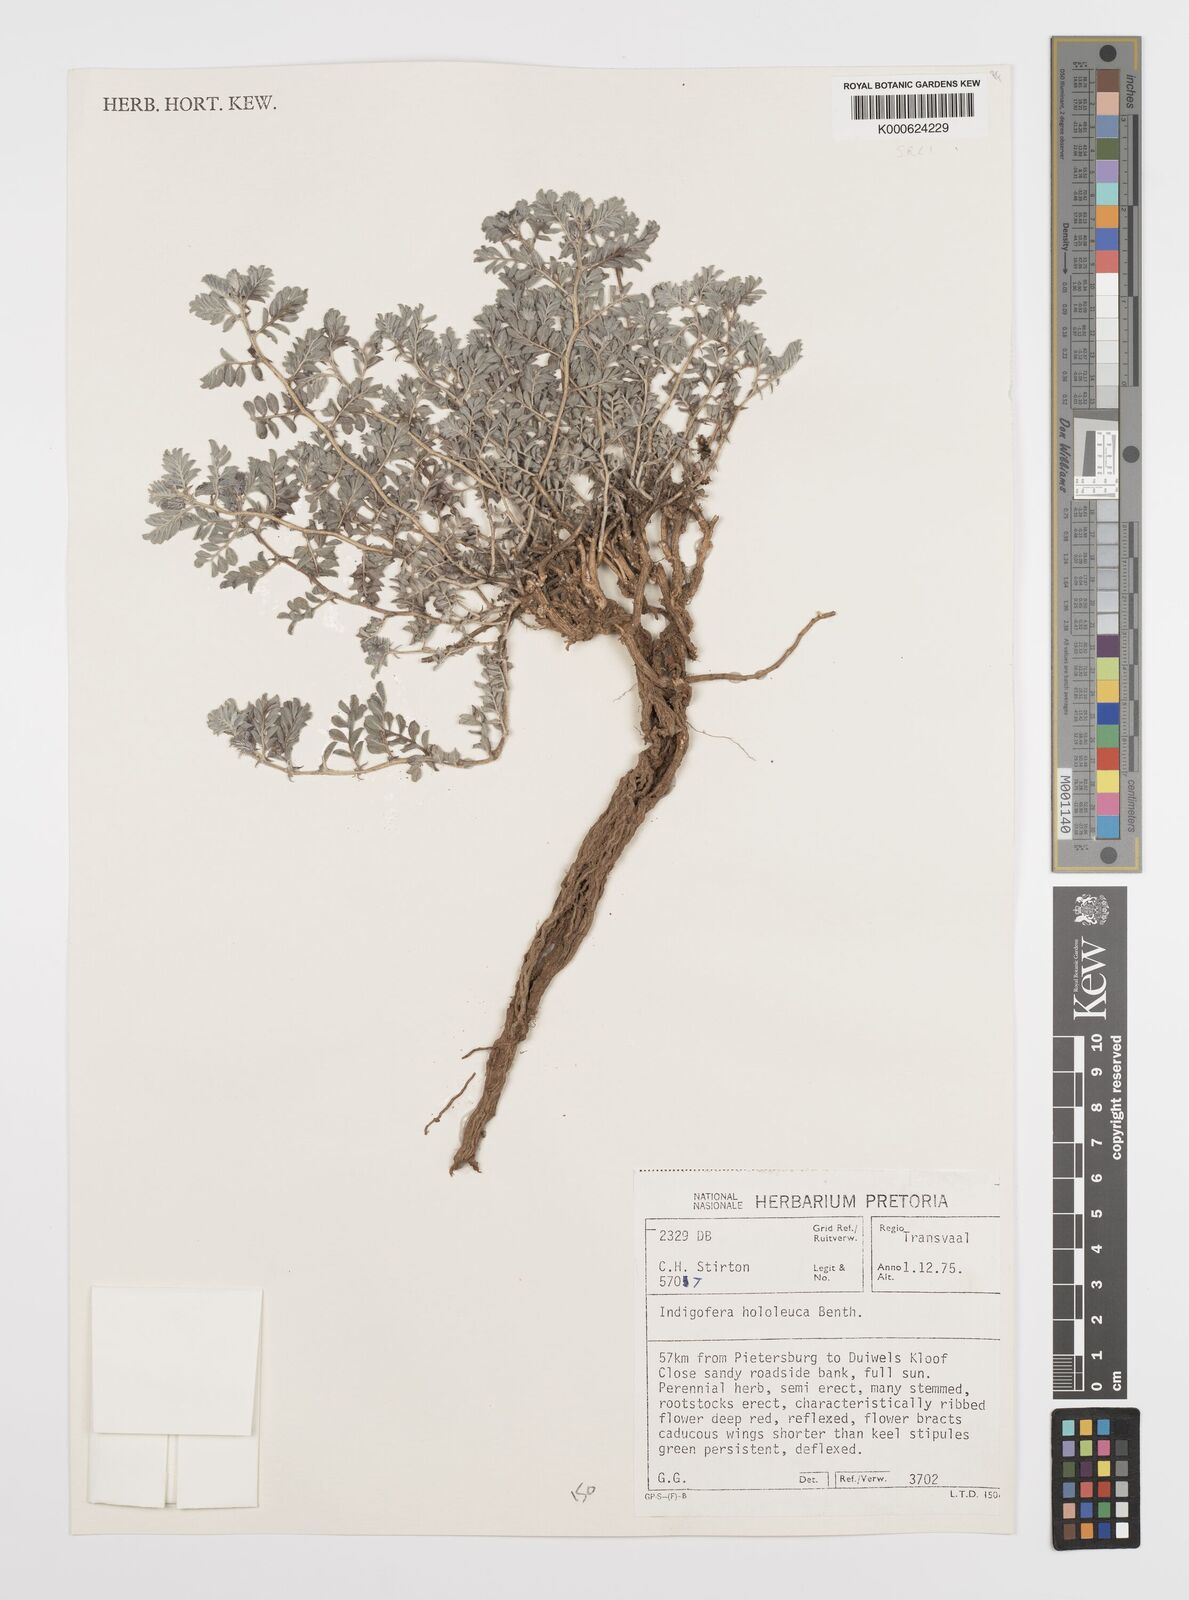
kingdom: Plantae
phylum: Tracheophyta
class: Magnoliopsida
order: Fabales
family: Fabaceae
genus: Indigofera
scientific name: Indigofera daleoides
